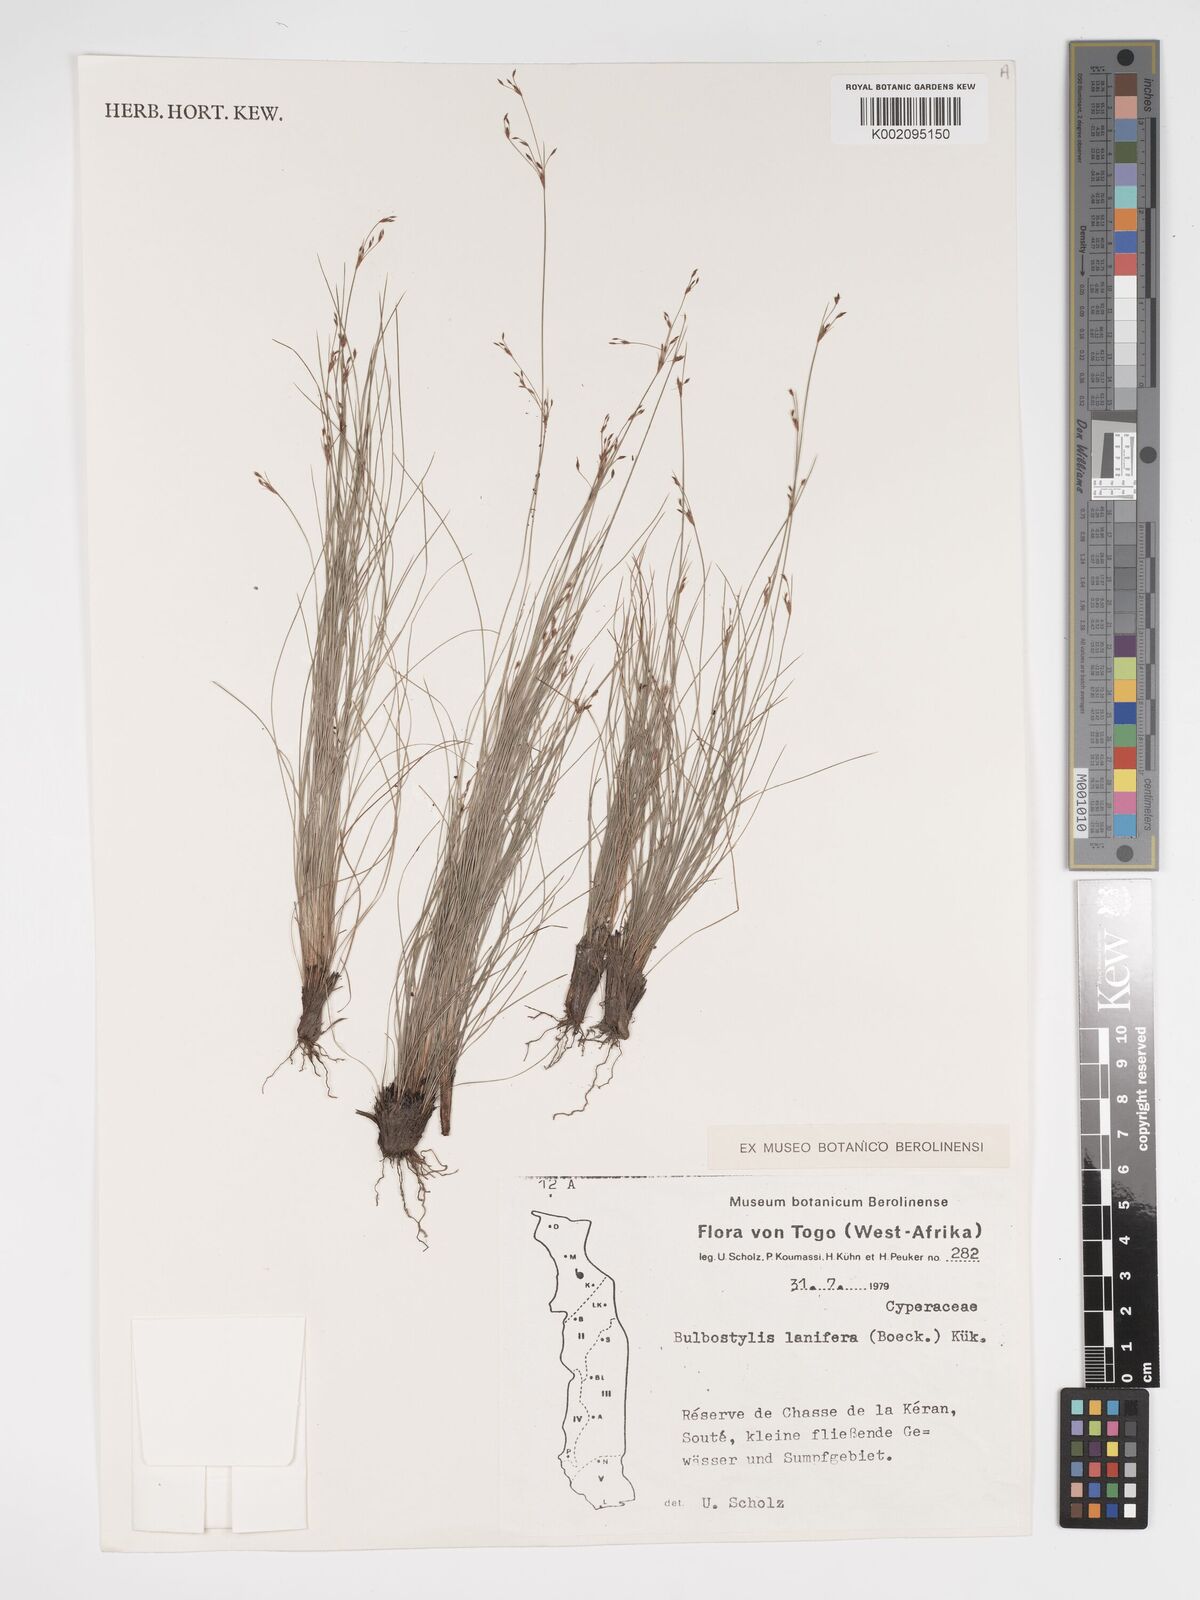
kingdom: Plantae
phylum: Tracheophyta
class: Liliopsida
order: Poales
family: Cyperaceae
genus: Bulbostylis
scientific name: Bulbostylis lanifera
